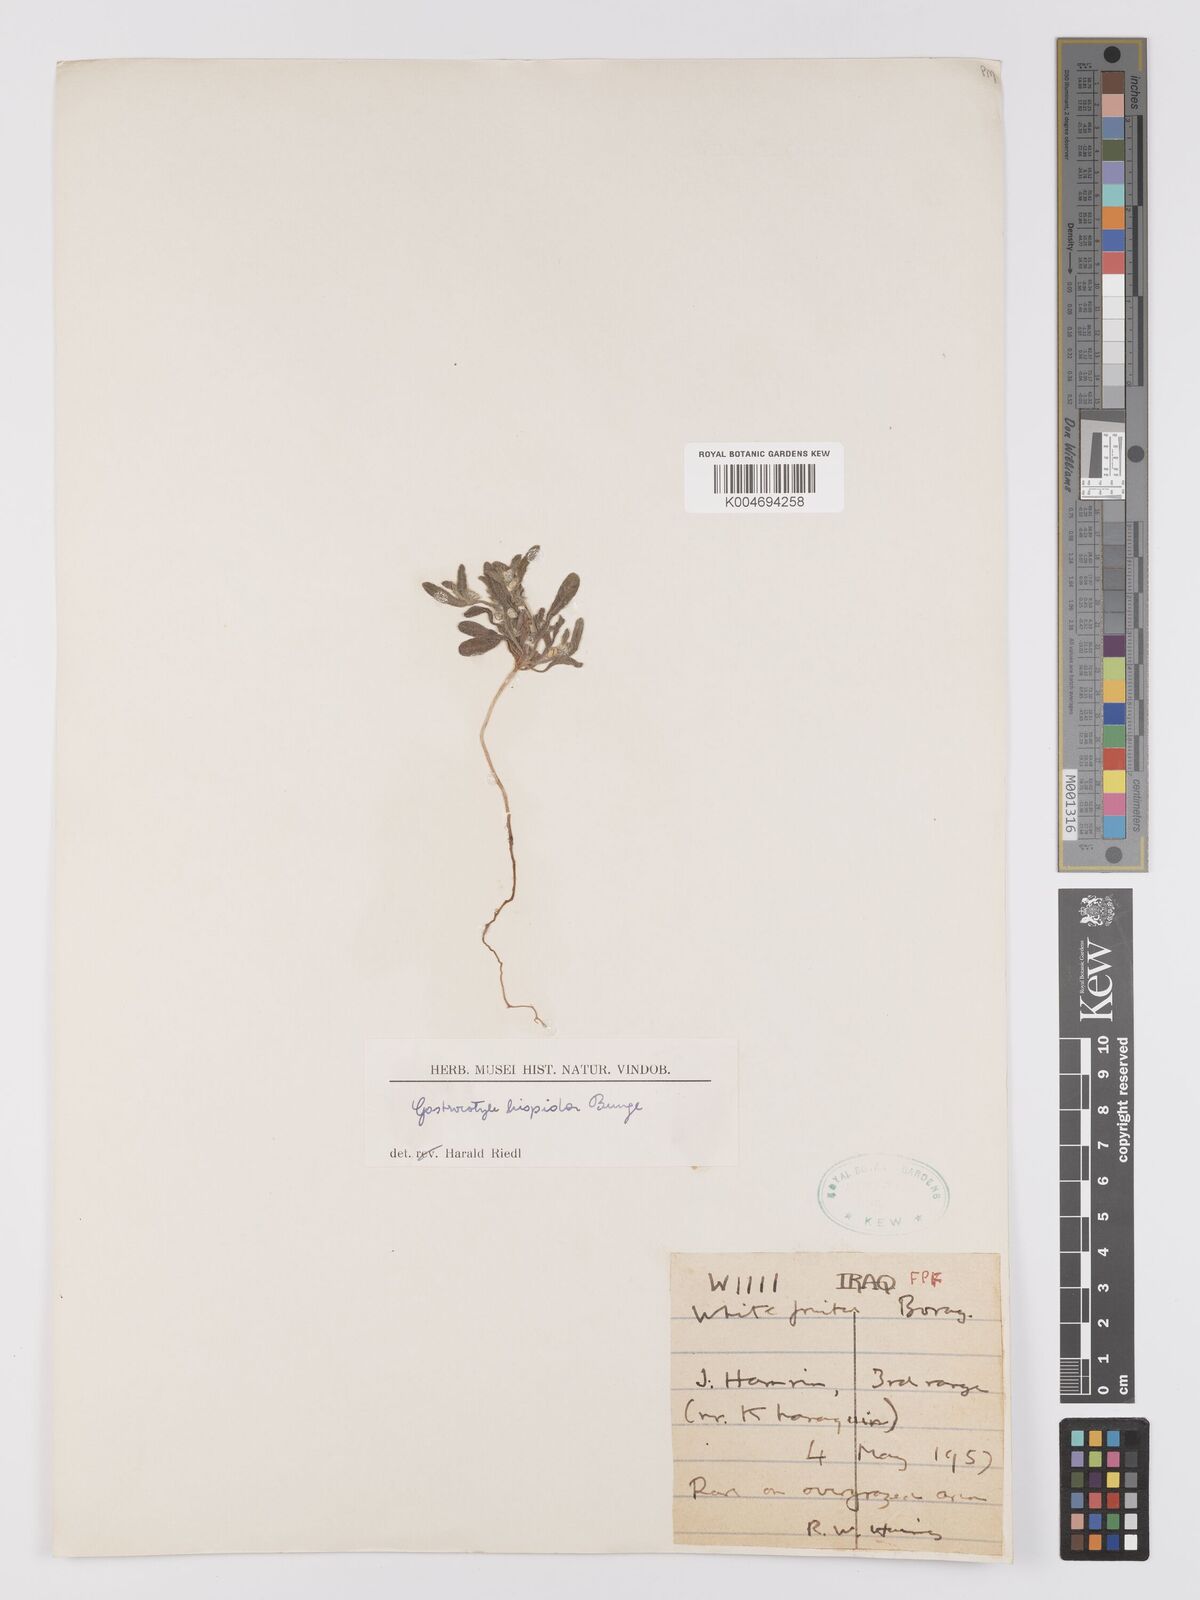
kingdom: Plantae
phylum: Tracheophyta
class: Magnoliopsida
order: Boraginales
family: Boraginaceae
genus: Gastrocotyle
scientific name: Gastrocotyle hispida
